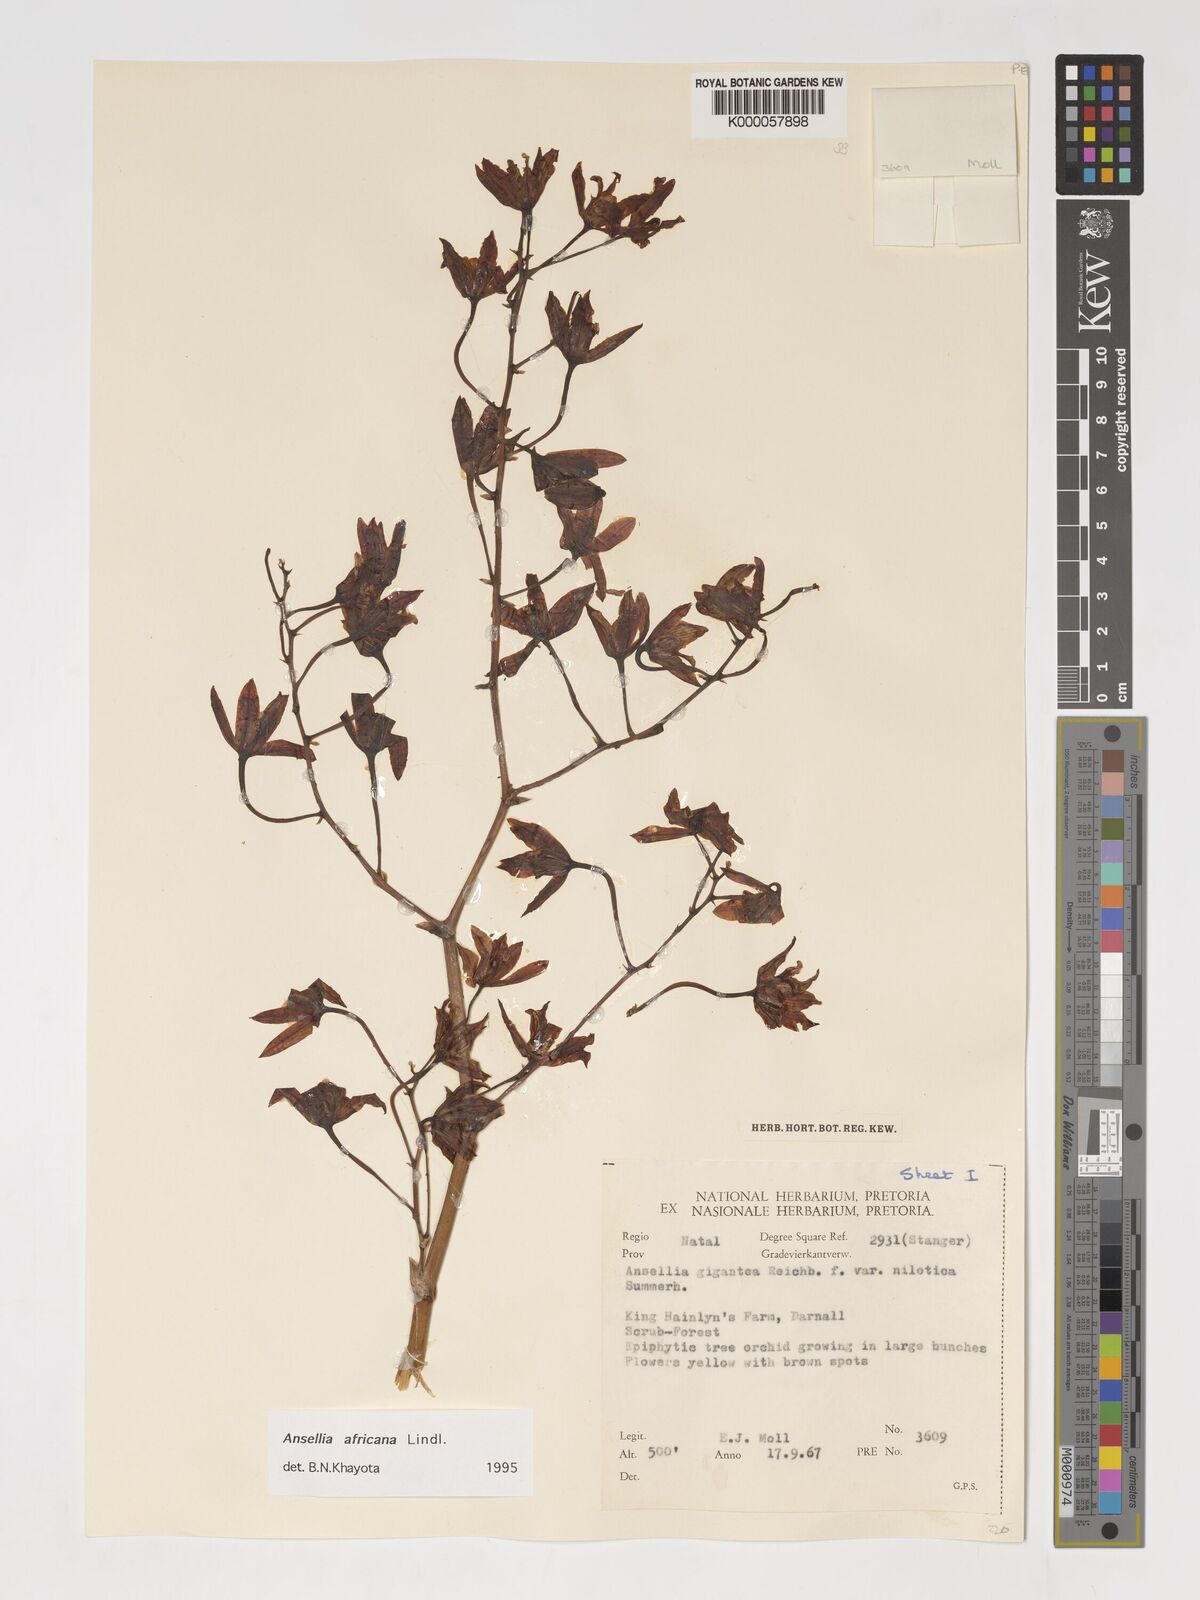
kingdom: Plantae
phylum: Tracheophyta
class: Liliopsida
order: Asparagales
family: Orchidaceae
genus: Ansellia
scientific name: Ansellia africana
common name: African ansellia
